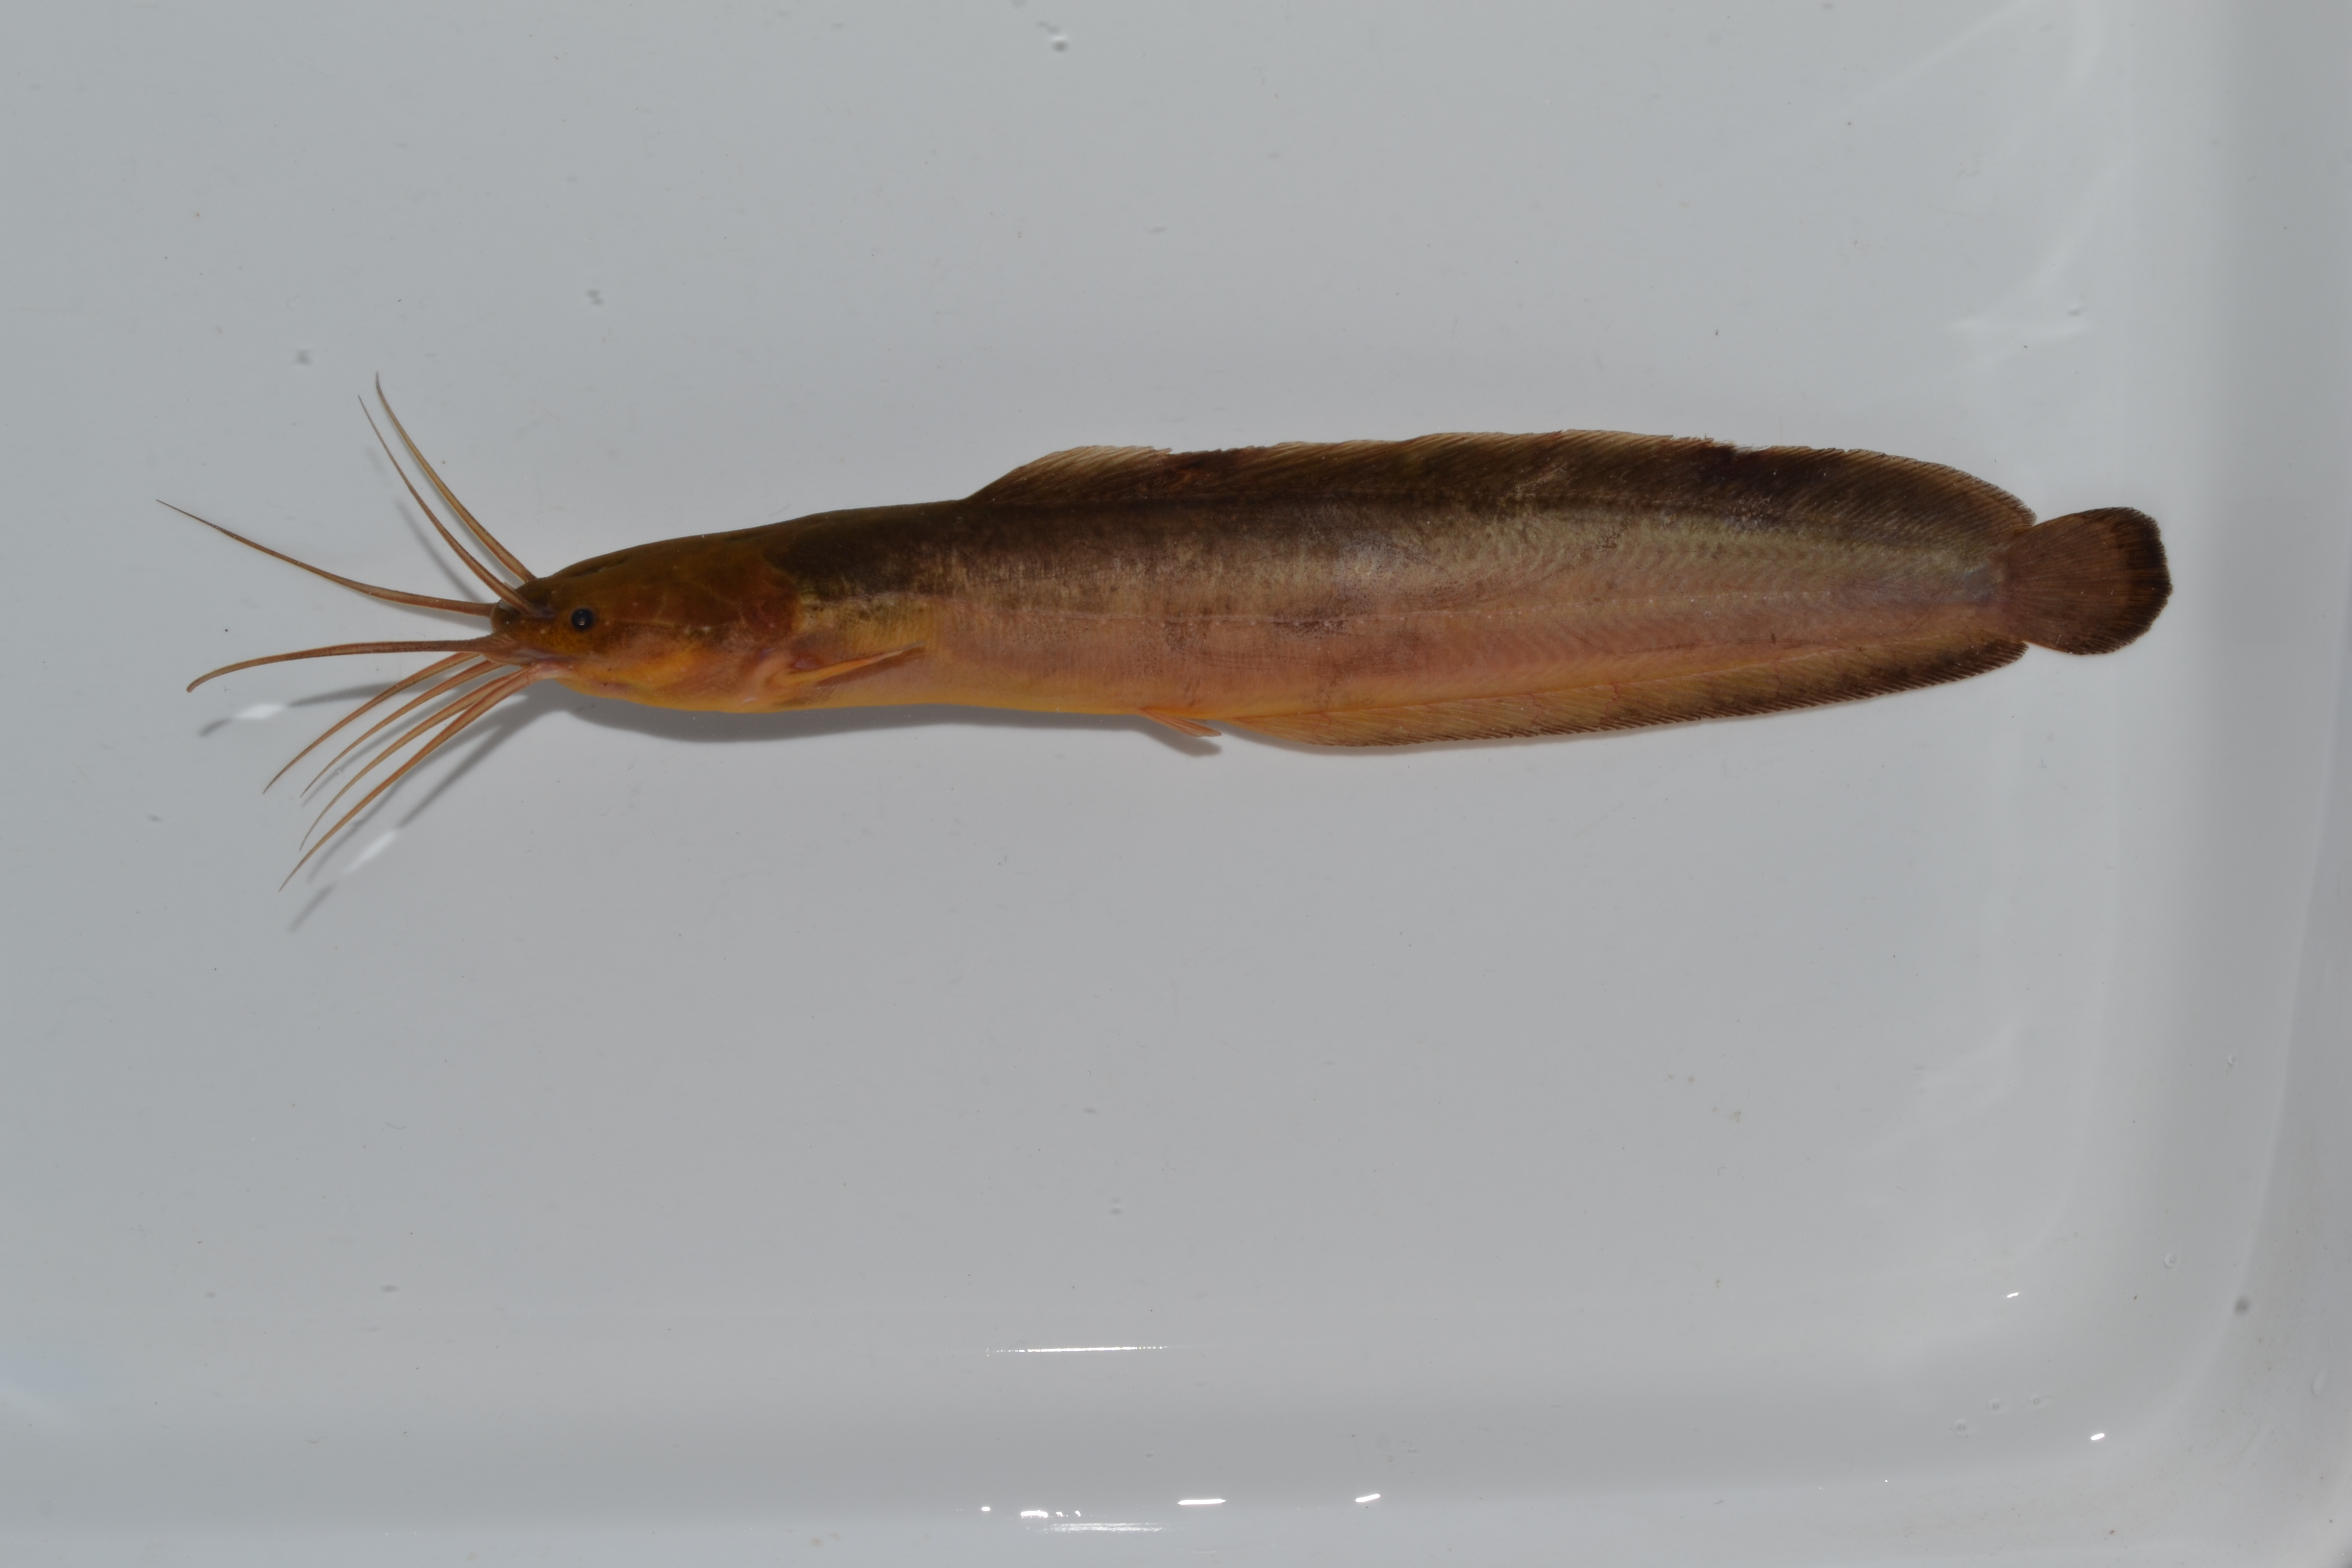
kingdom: Animalia
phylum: Chordata
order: Siluriformes
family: Clariidae
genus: Clarias
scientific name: Clarias theodorae
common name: Snake catfish
